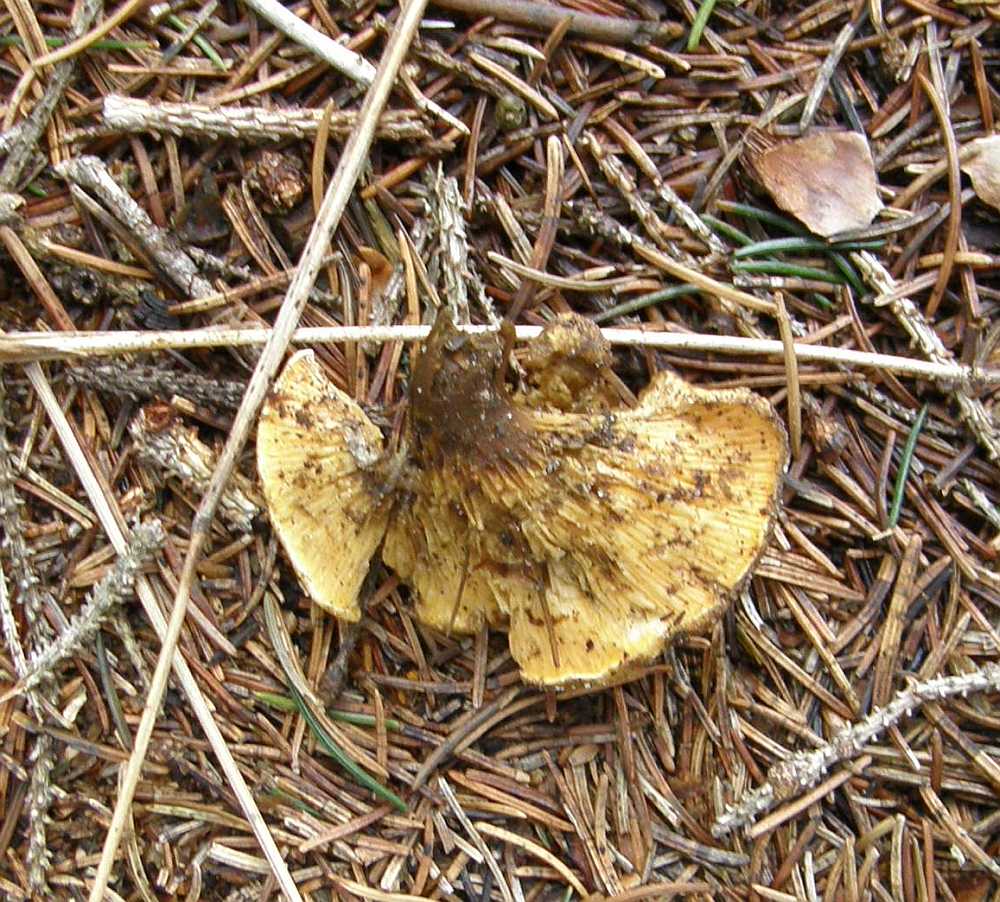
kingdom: Fungi
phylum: Basidiomycota
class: Agaricomycetes
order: Boletales
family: Hygrophoropsidaceae
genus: Hygrophoropsis
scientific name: Hygrophoropsis aurantiaca
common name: almindelig orangekantarel
